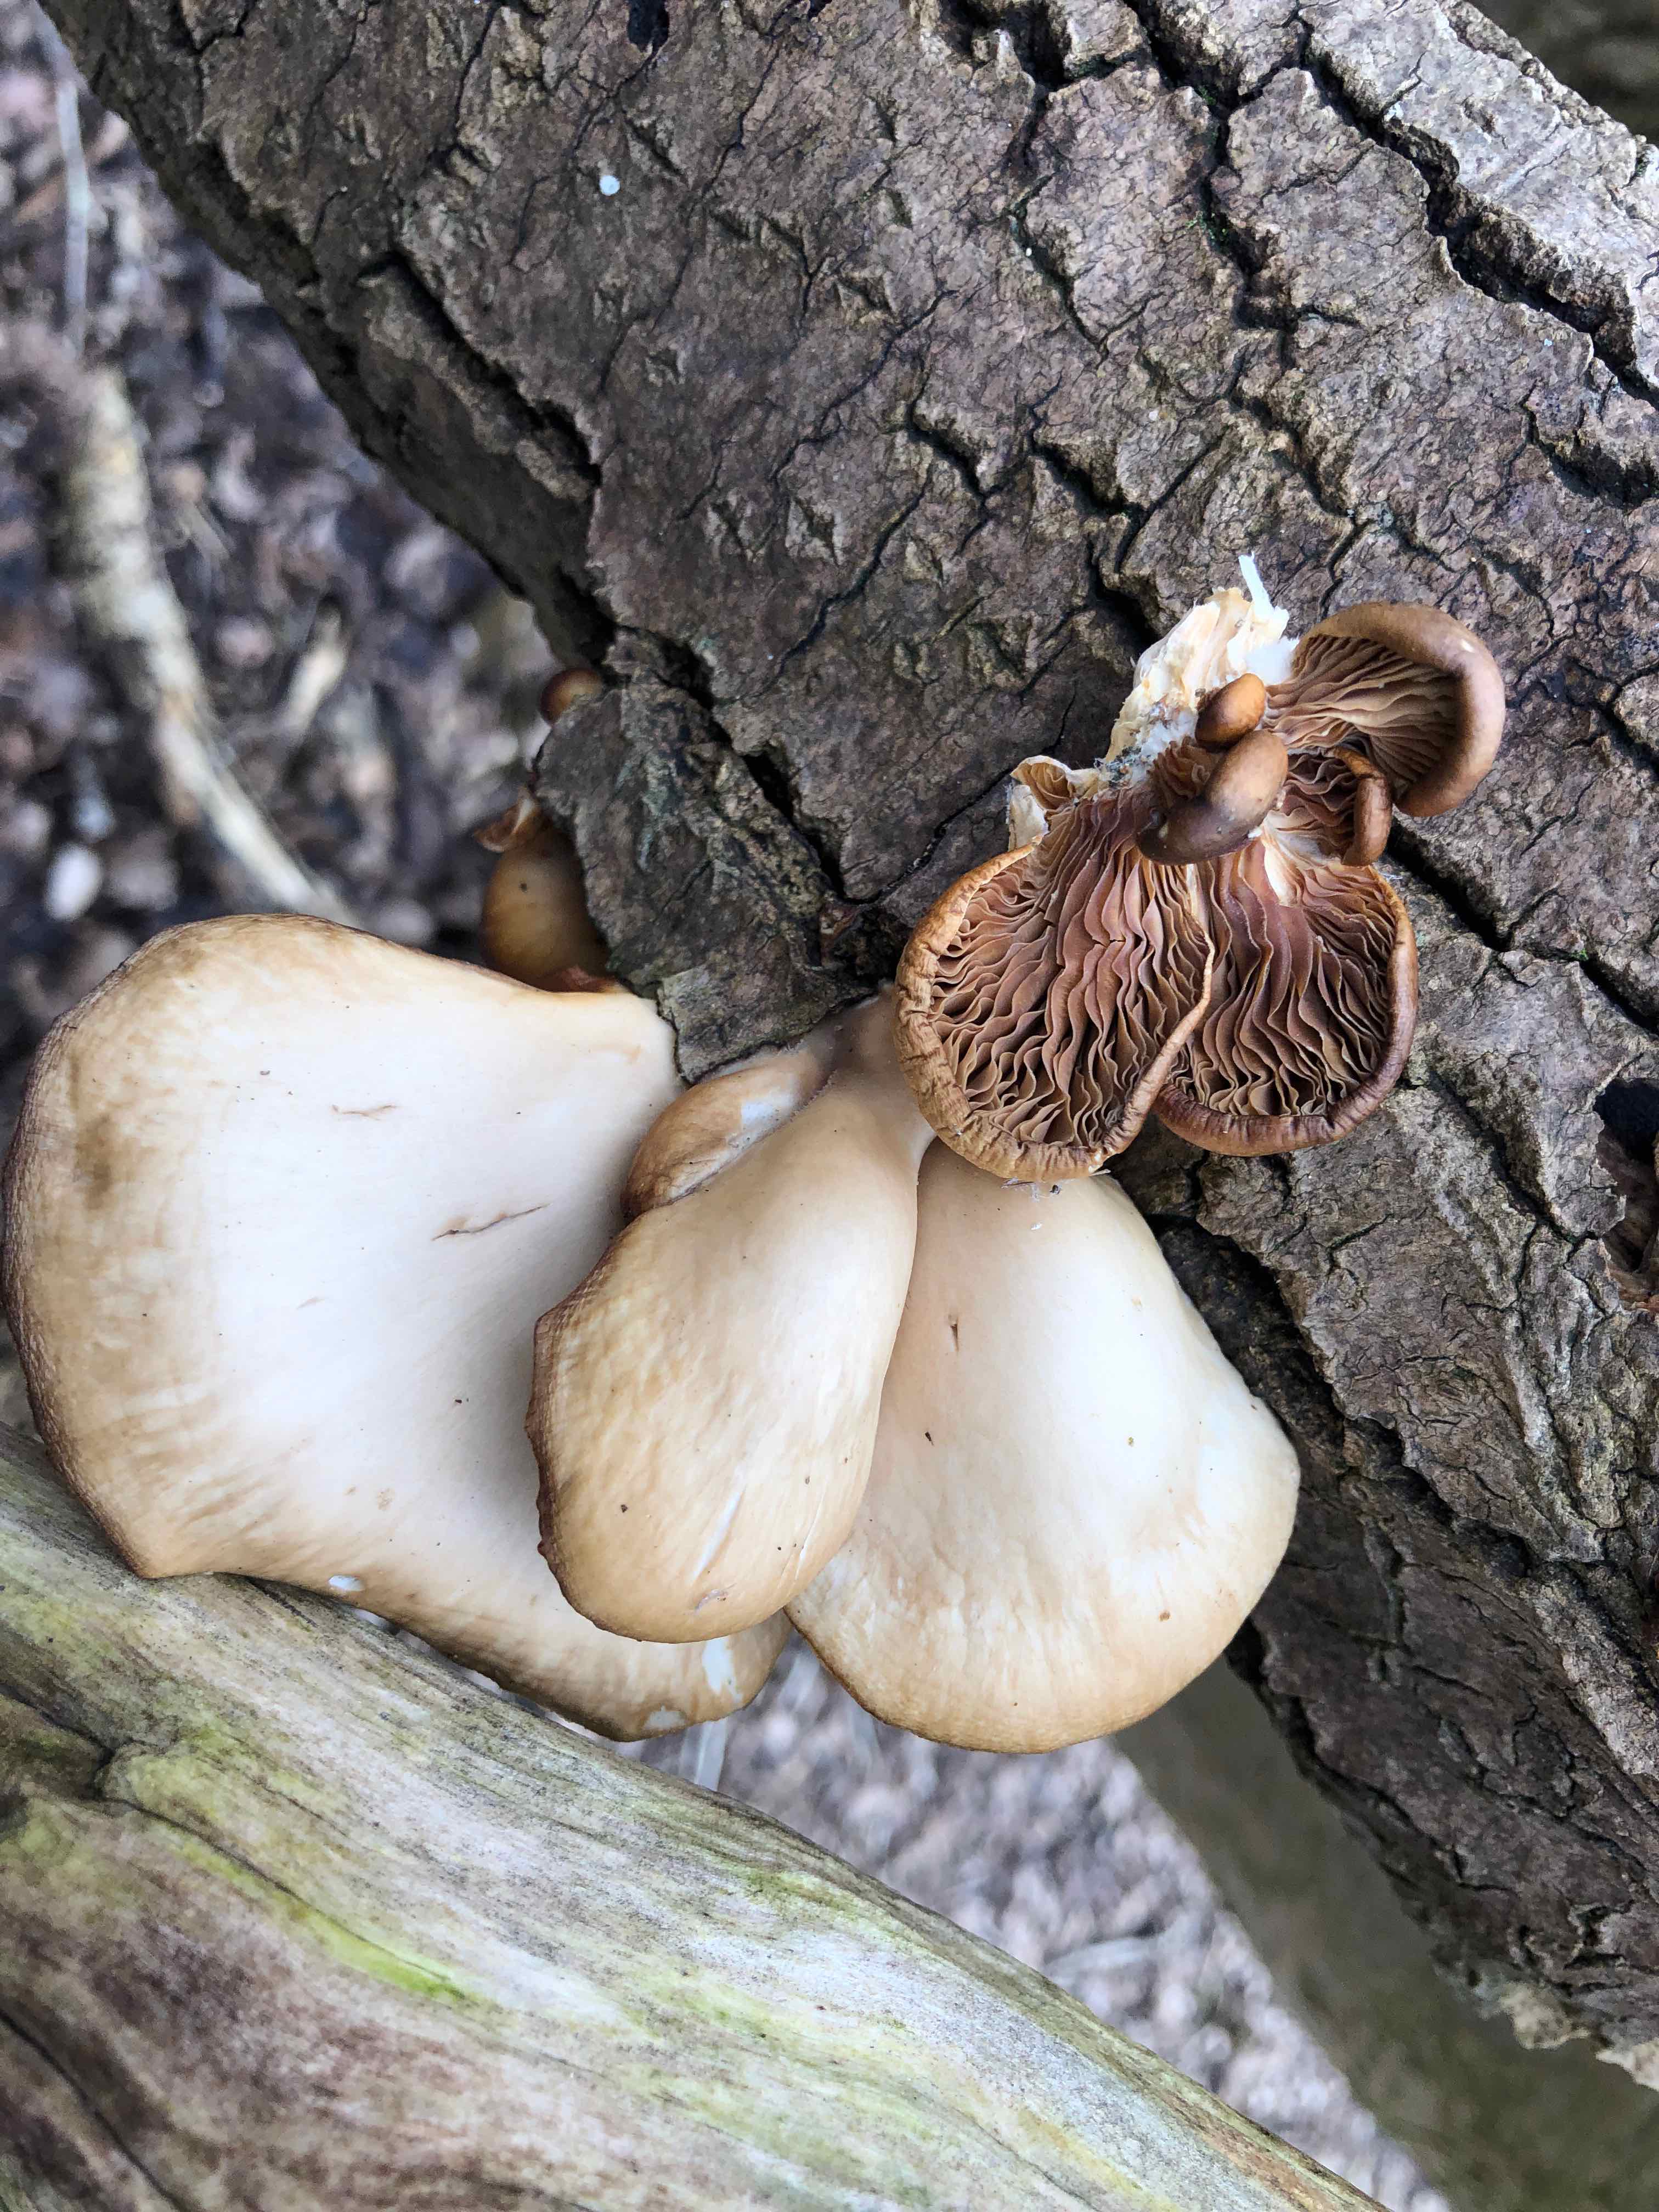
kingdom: Fungi
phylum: Basidiomycota
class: Agaricomycetes
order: Agaricales
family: Pleurotaceae
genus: Pleurotus
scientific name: Pleurotus ostreatus
